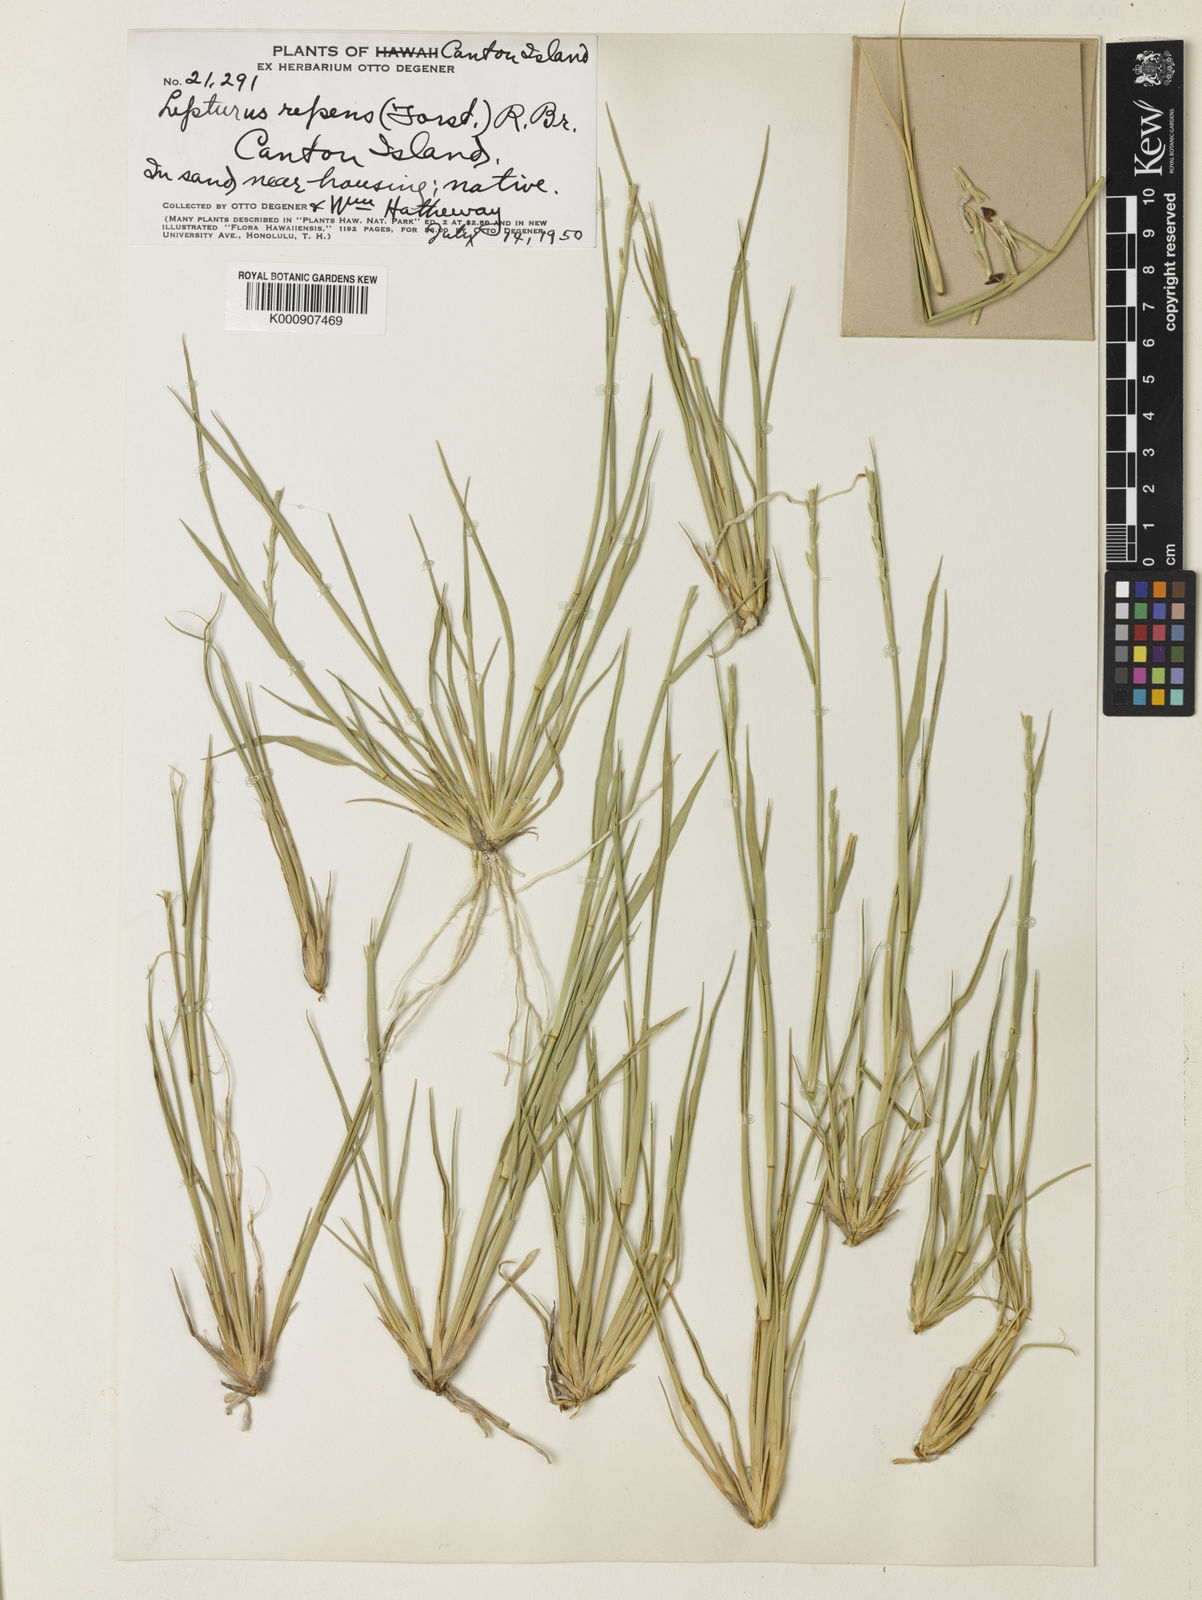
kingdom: Plantae
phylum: Tracheophyta
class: Liliopsida
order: Poales
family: Poaceae
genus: Lepturus
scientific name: Lepturus repens
